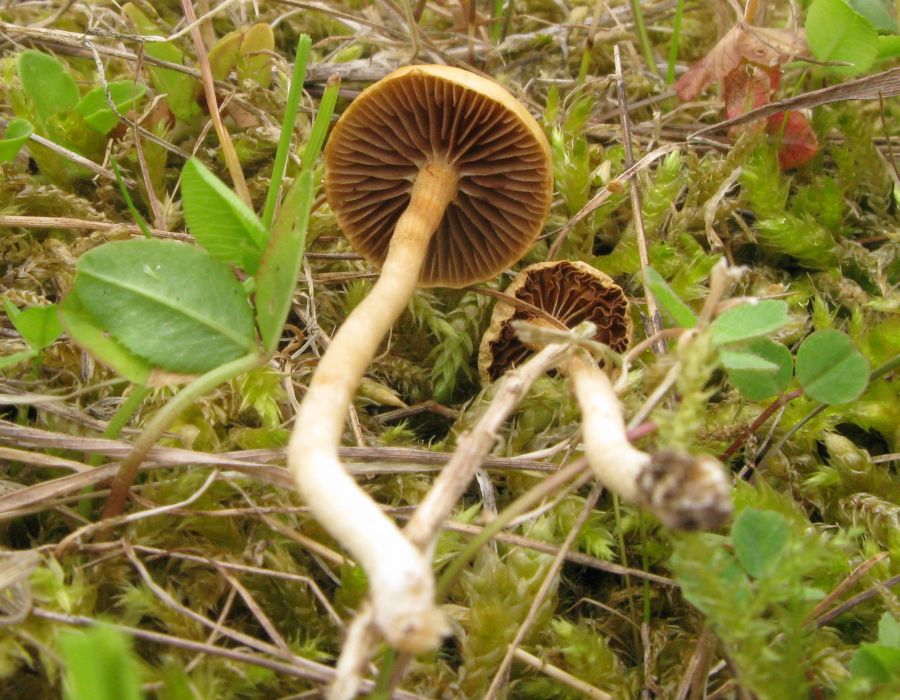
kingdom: Fungi
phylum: Basidiomycota
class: Agaricomycetes
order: Agaricales
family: Strophariaceae
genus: Agrocybe
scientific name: Agrocybe pediades
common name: almindelig agerhat
